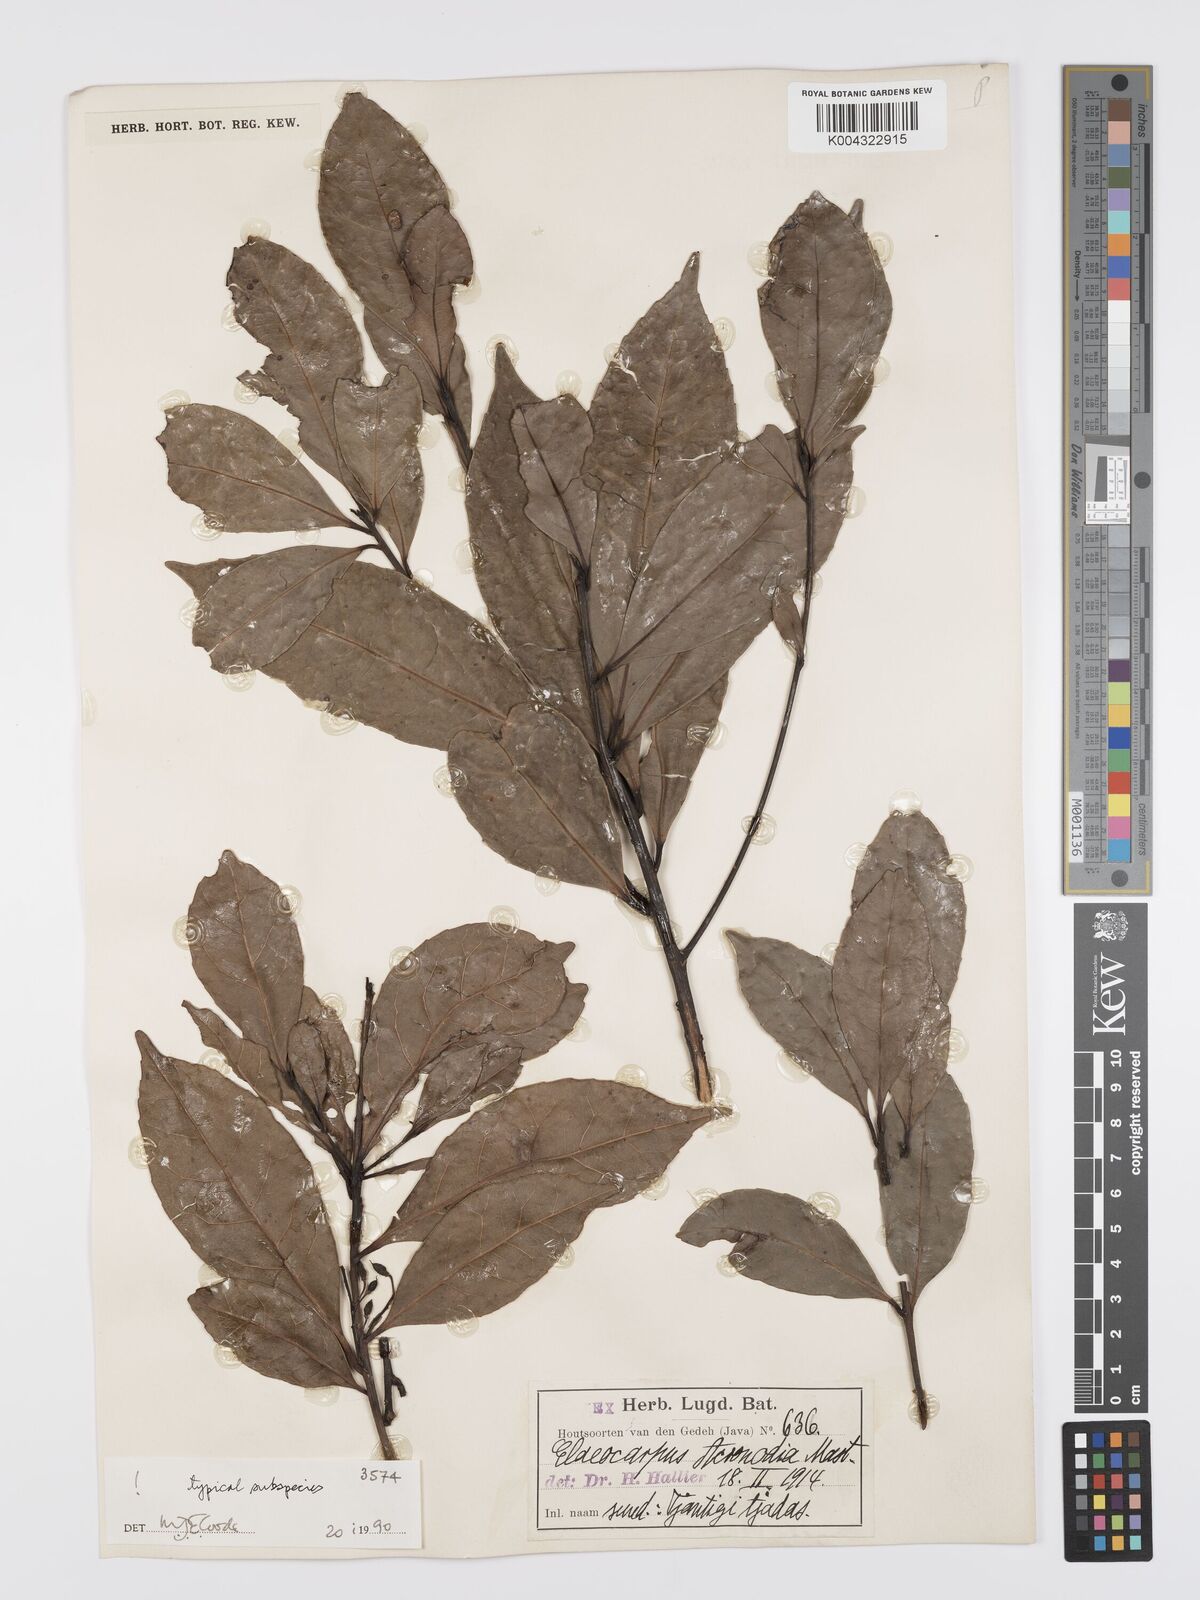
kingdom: Plantae
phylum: Tracheophyta
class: Magnoliopsida
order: Oxalidales
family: Elaeocarpaceae
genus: Elaeocarpus
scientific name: Elaeocarpus acronodia
